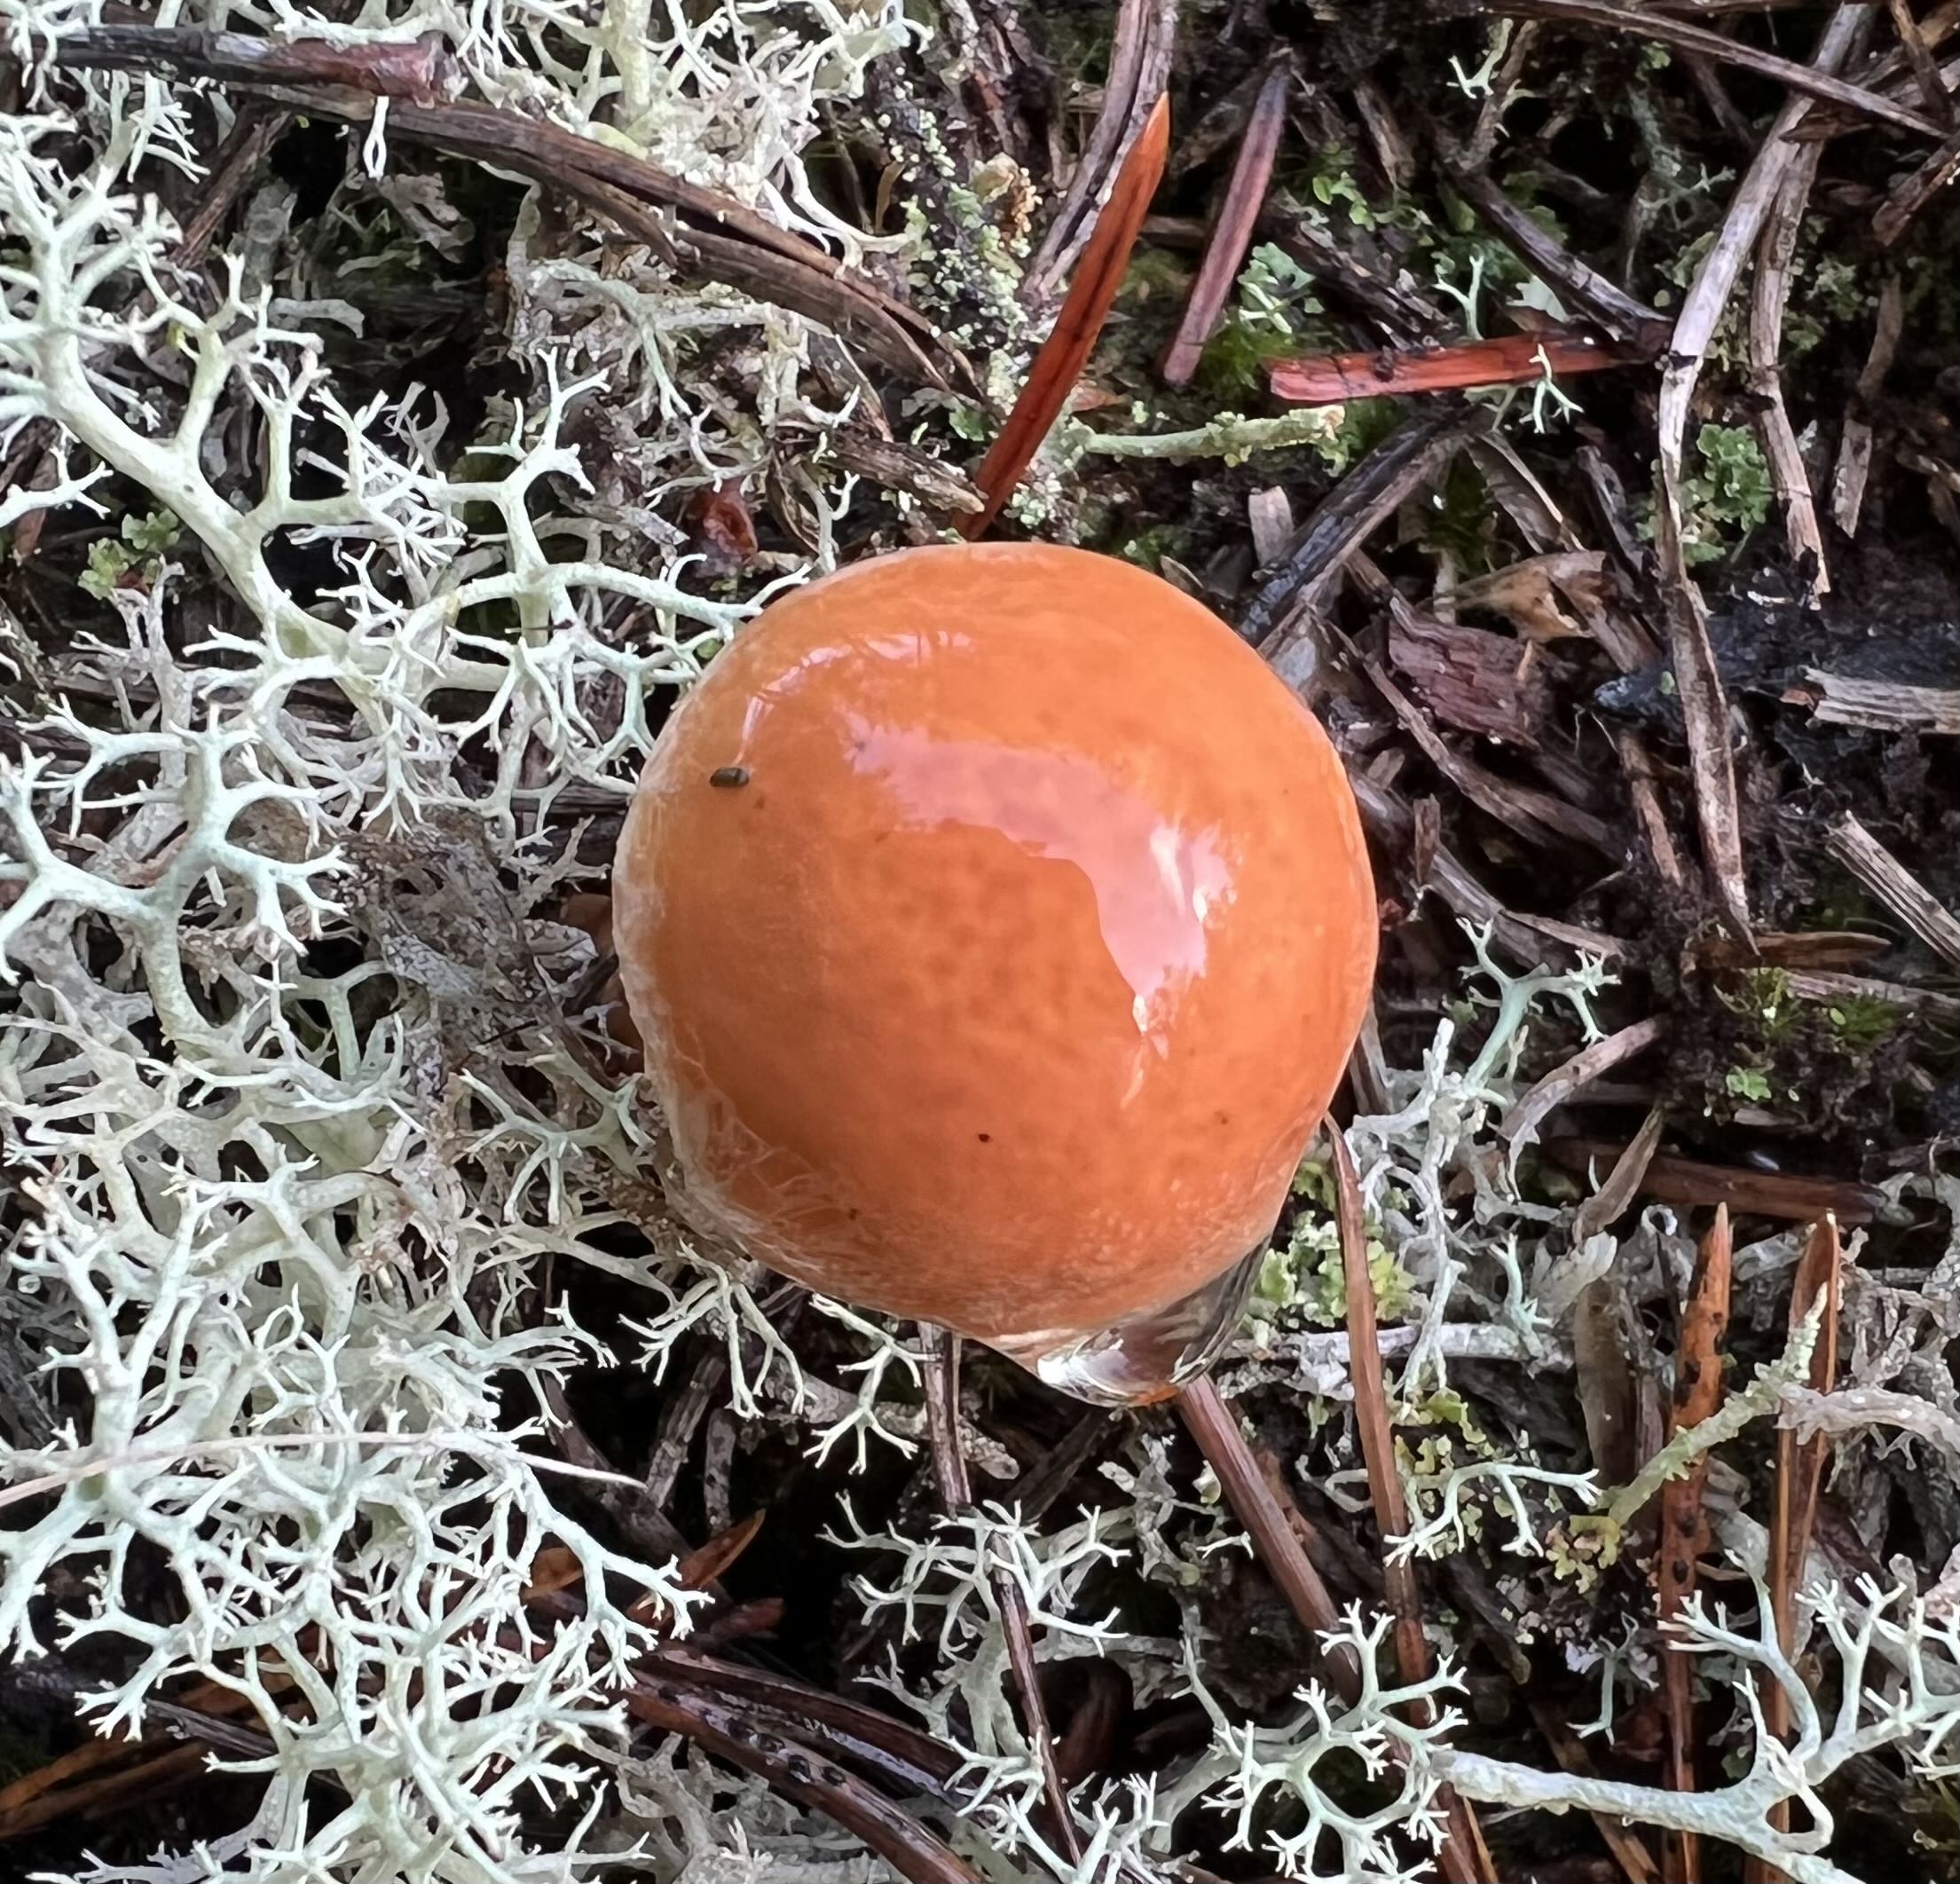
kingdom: Fungi
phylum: Basidiomycota
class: Agaricomycetes
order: Boletales
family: Suillaceae
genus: Suillus
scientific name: Suillus bovinus
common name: grovporet slimrørhat
